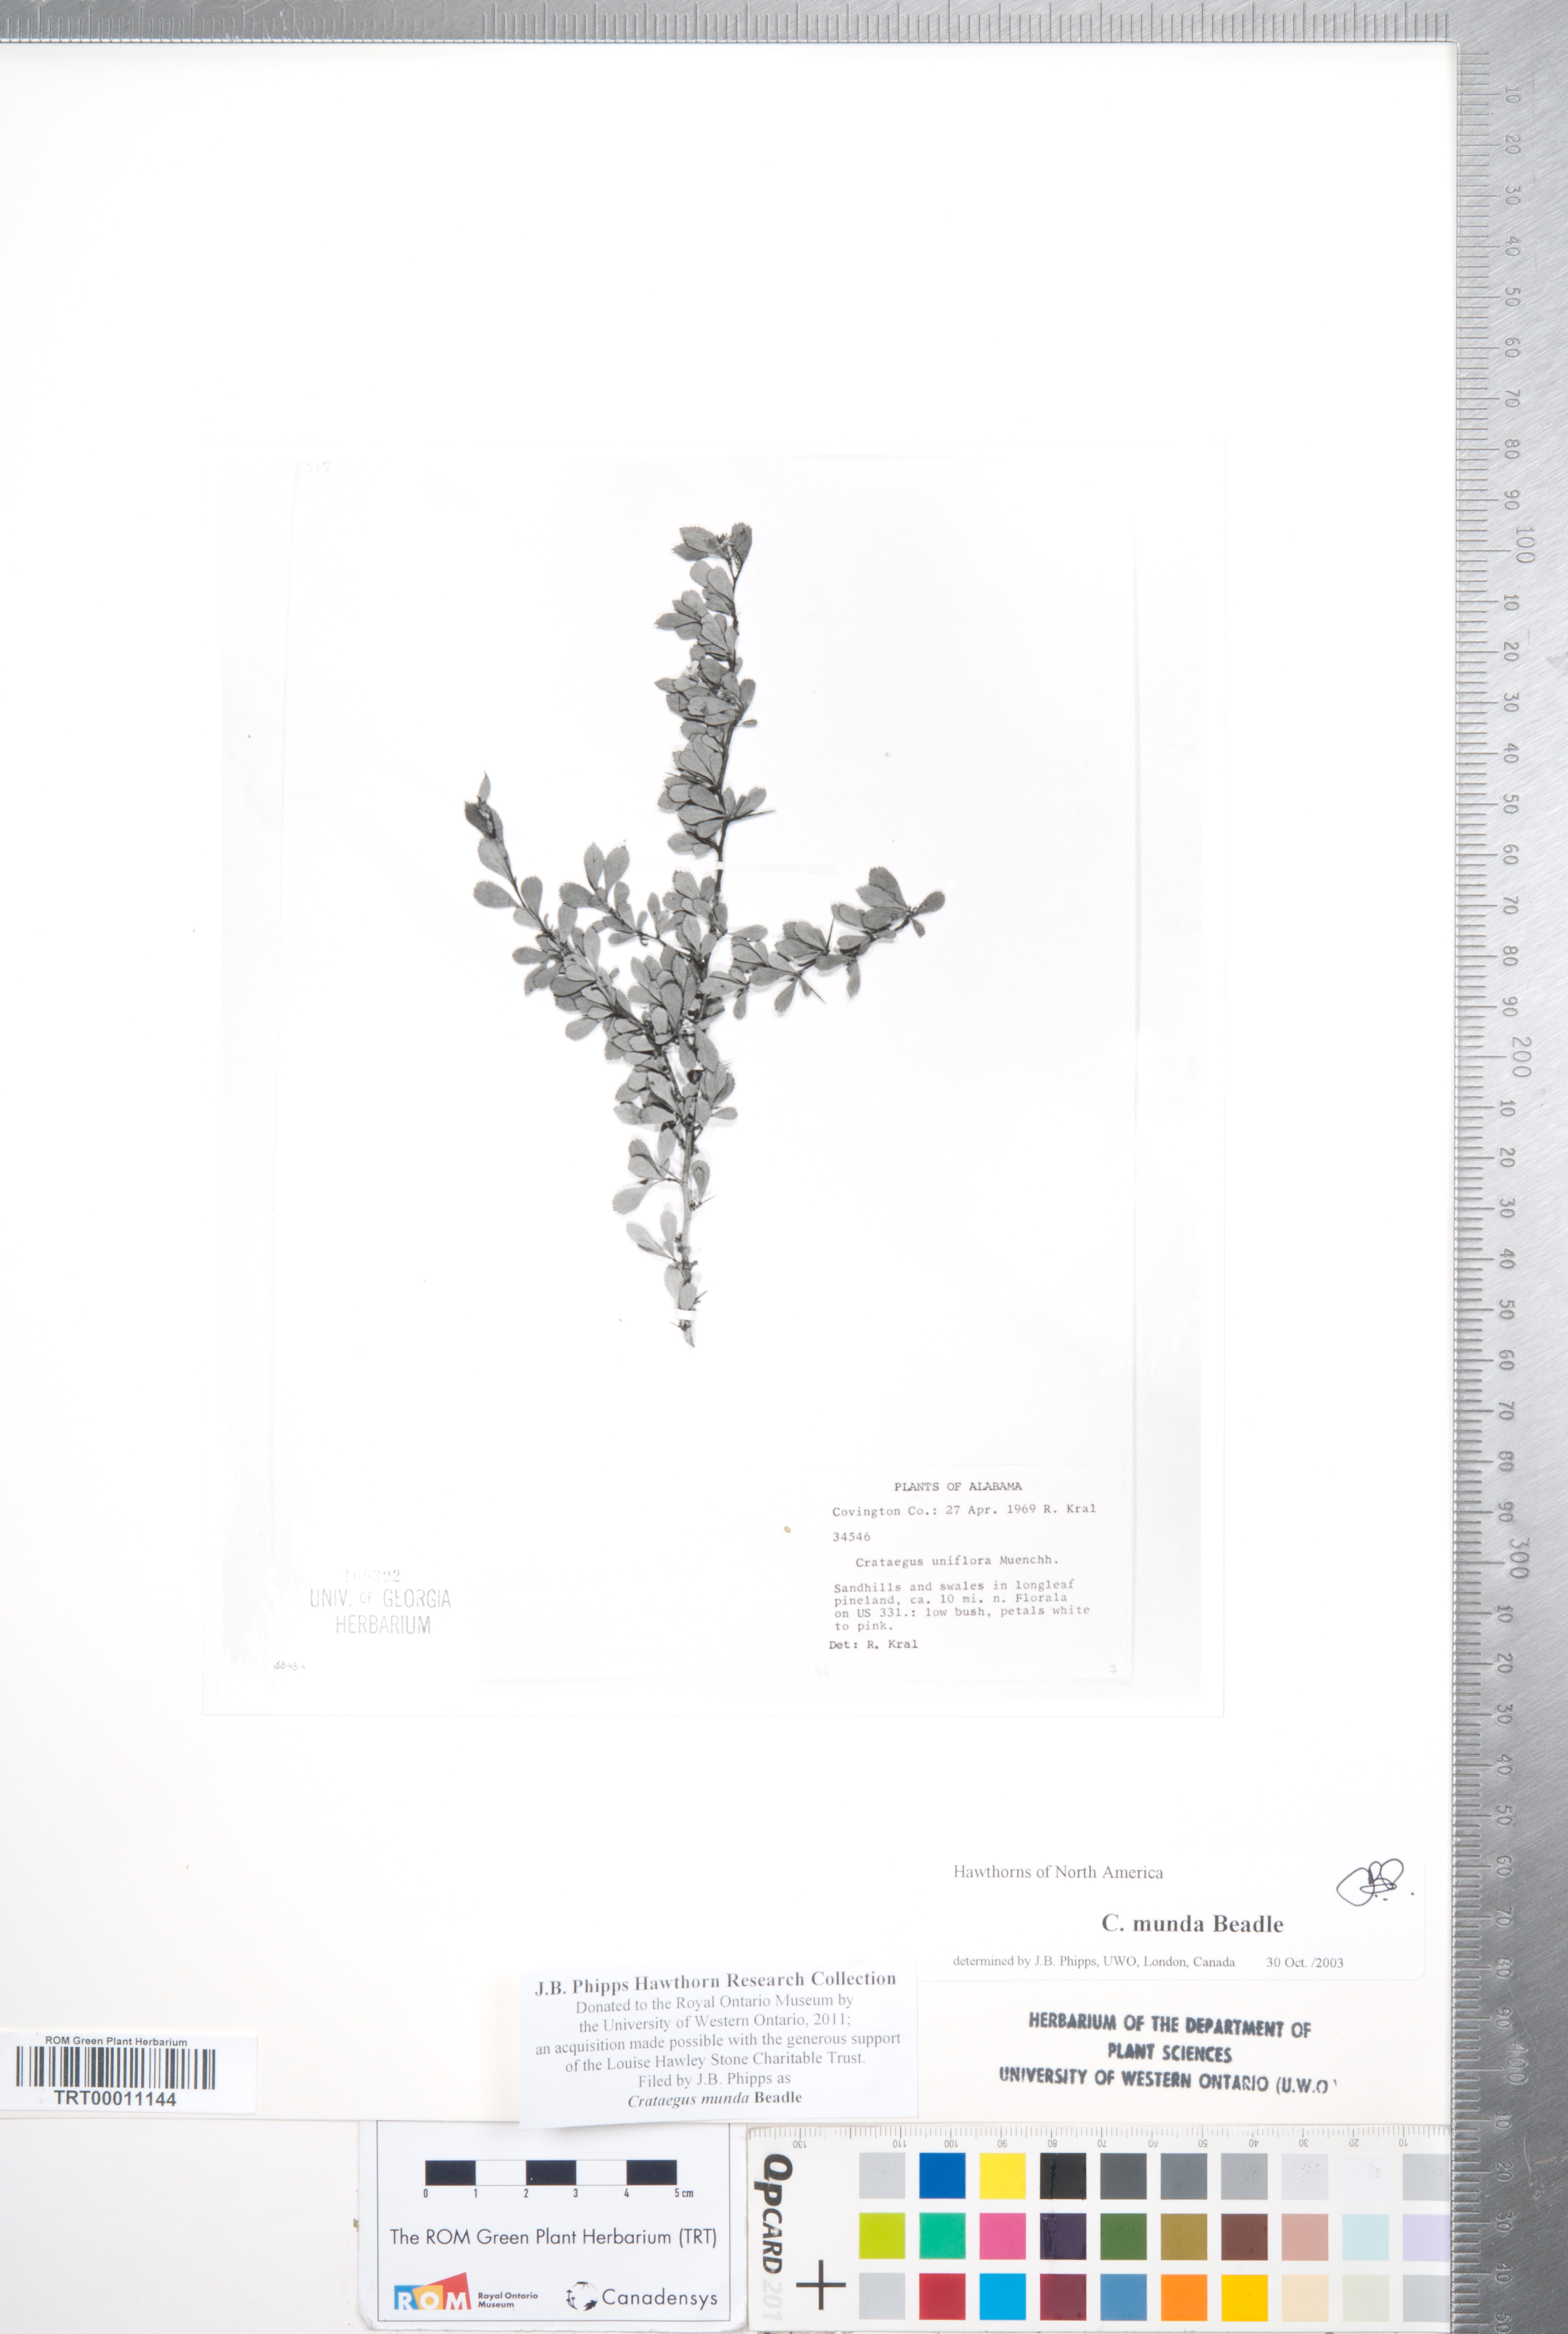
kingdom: Plantae
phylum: Tracheophyta
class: Magnoliopsida
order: Rosales
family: Rosaceae
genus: Crataegus
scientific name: Crataegus munda
